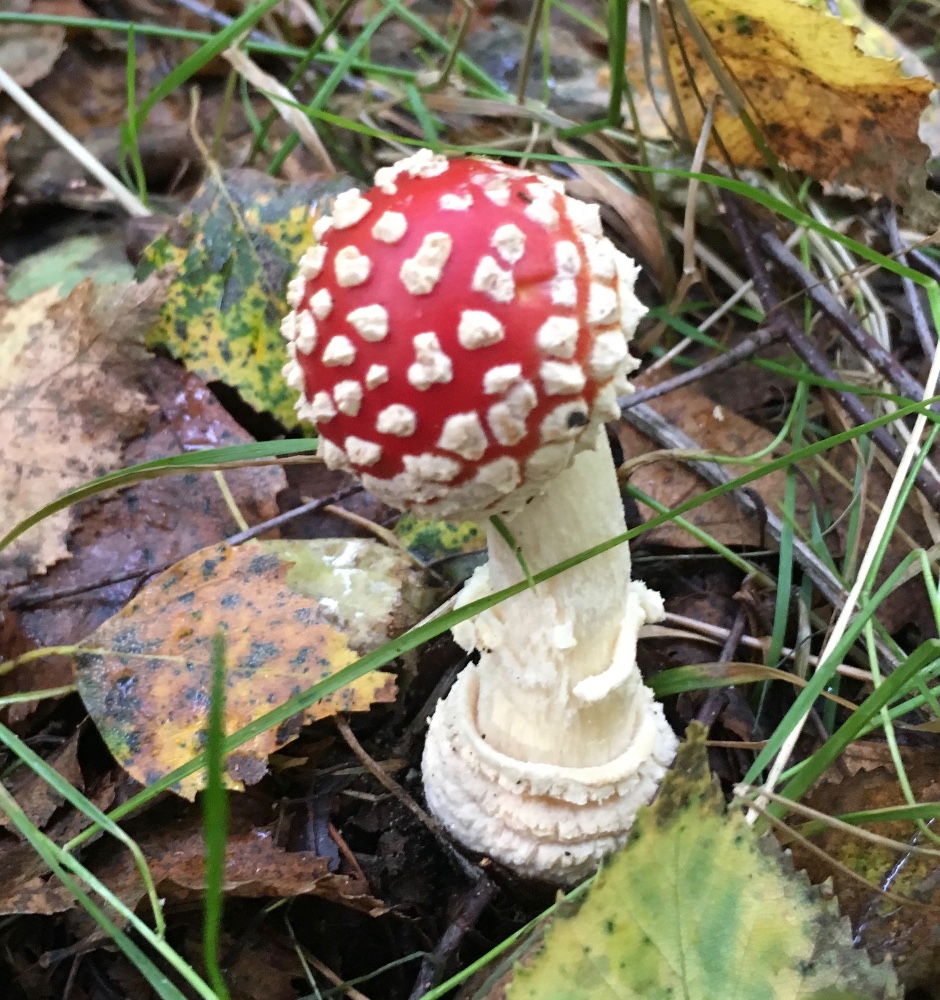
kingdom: Fungi
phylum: Basidiomycota
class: Agaricomycetes
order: Agaricales
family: Amanitaceae
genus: Amanita
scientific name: Amanita muscaria
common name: rød fluesvamp
